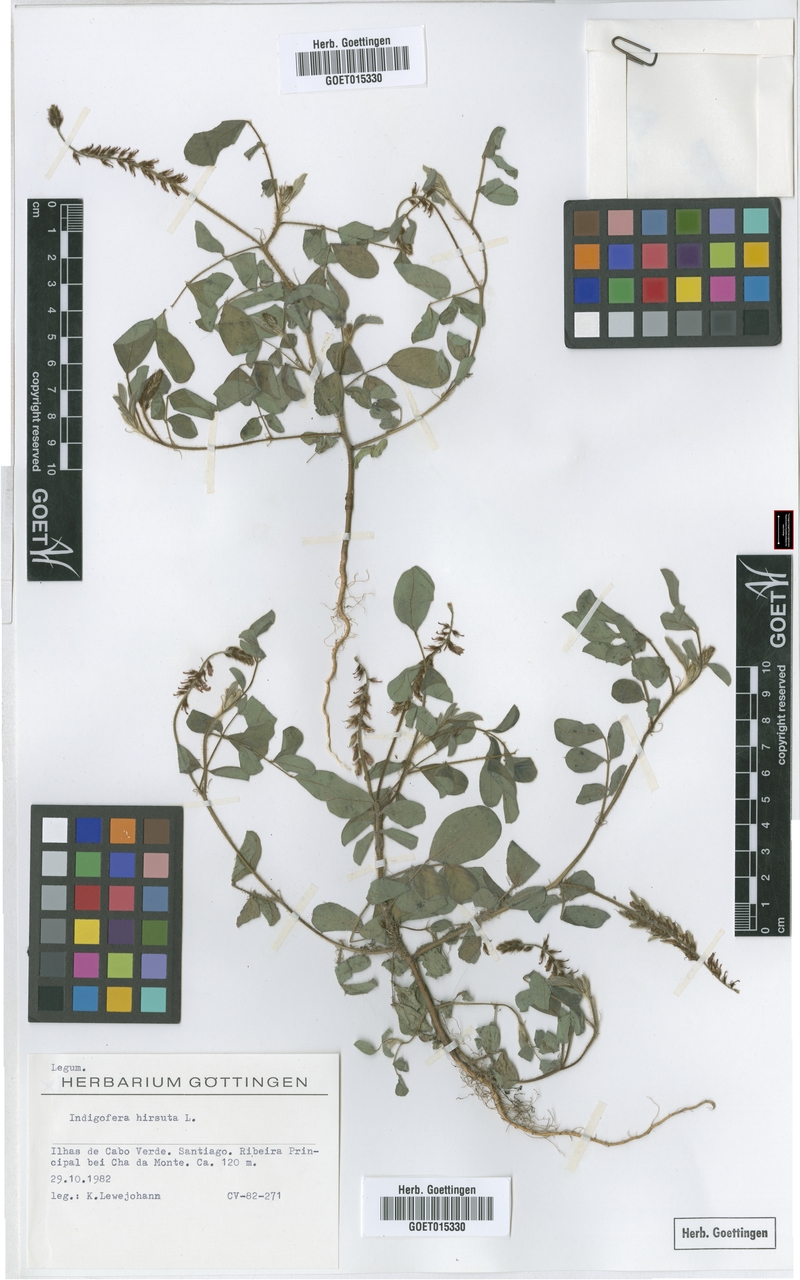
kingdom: Plantae
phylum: Tracheophyta
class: Magnoliopsida
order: Fabales
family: Fabaceae
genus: Indigofera
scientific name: Indigofera hirsuta
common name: Hairy indigo
